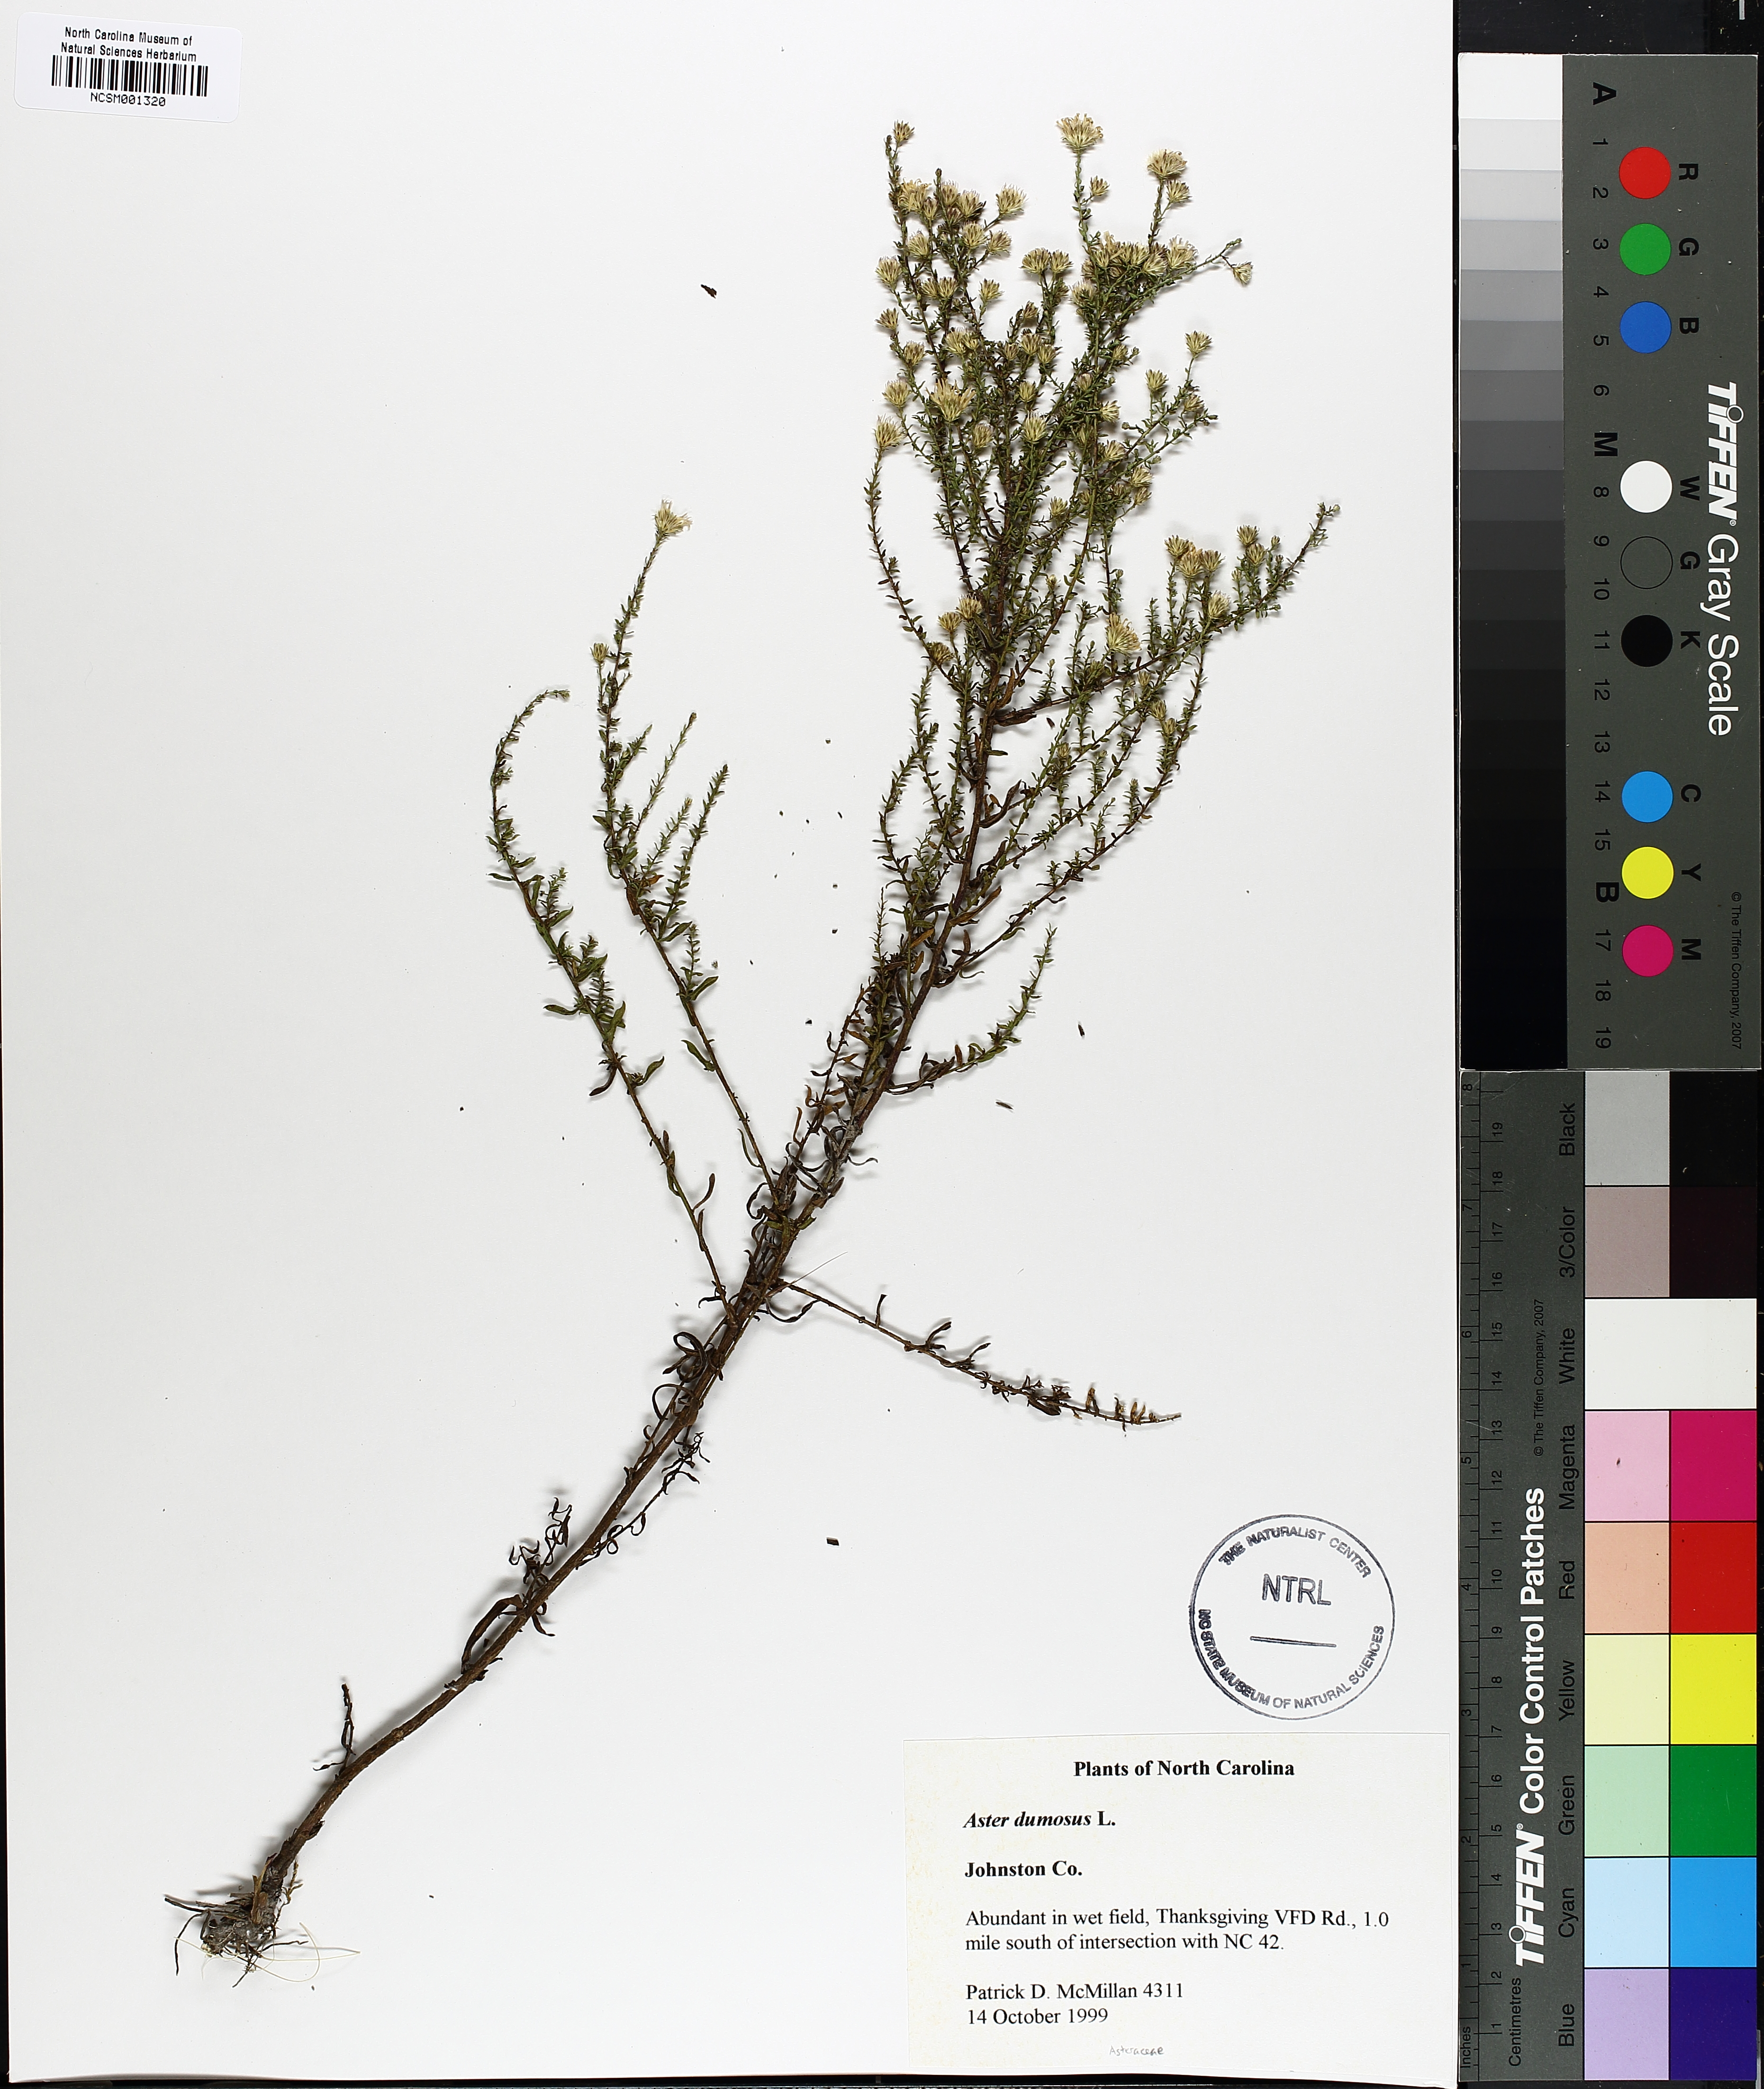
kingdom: Plantae
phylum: Tracheophyta
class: Magnoliopsida
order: Asterales
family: Asteraceae
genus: Symphyotrichum
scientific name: Symphyotrichum dumosum
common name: Bushy aster
